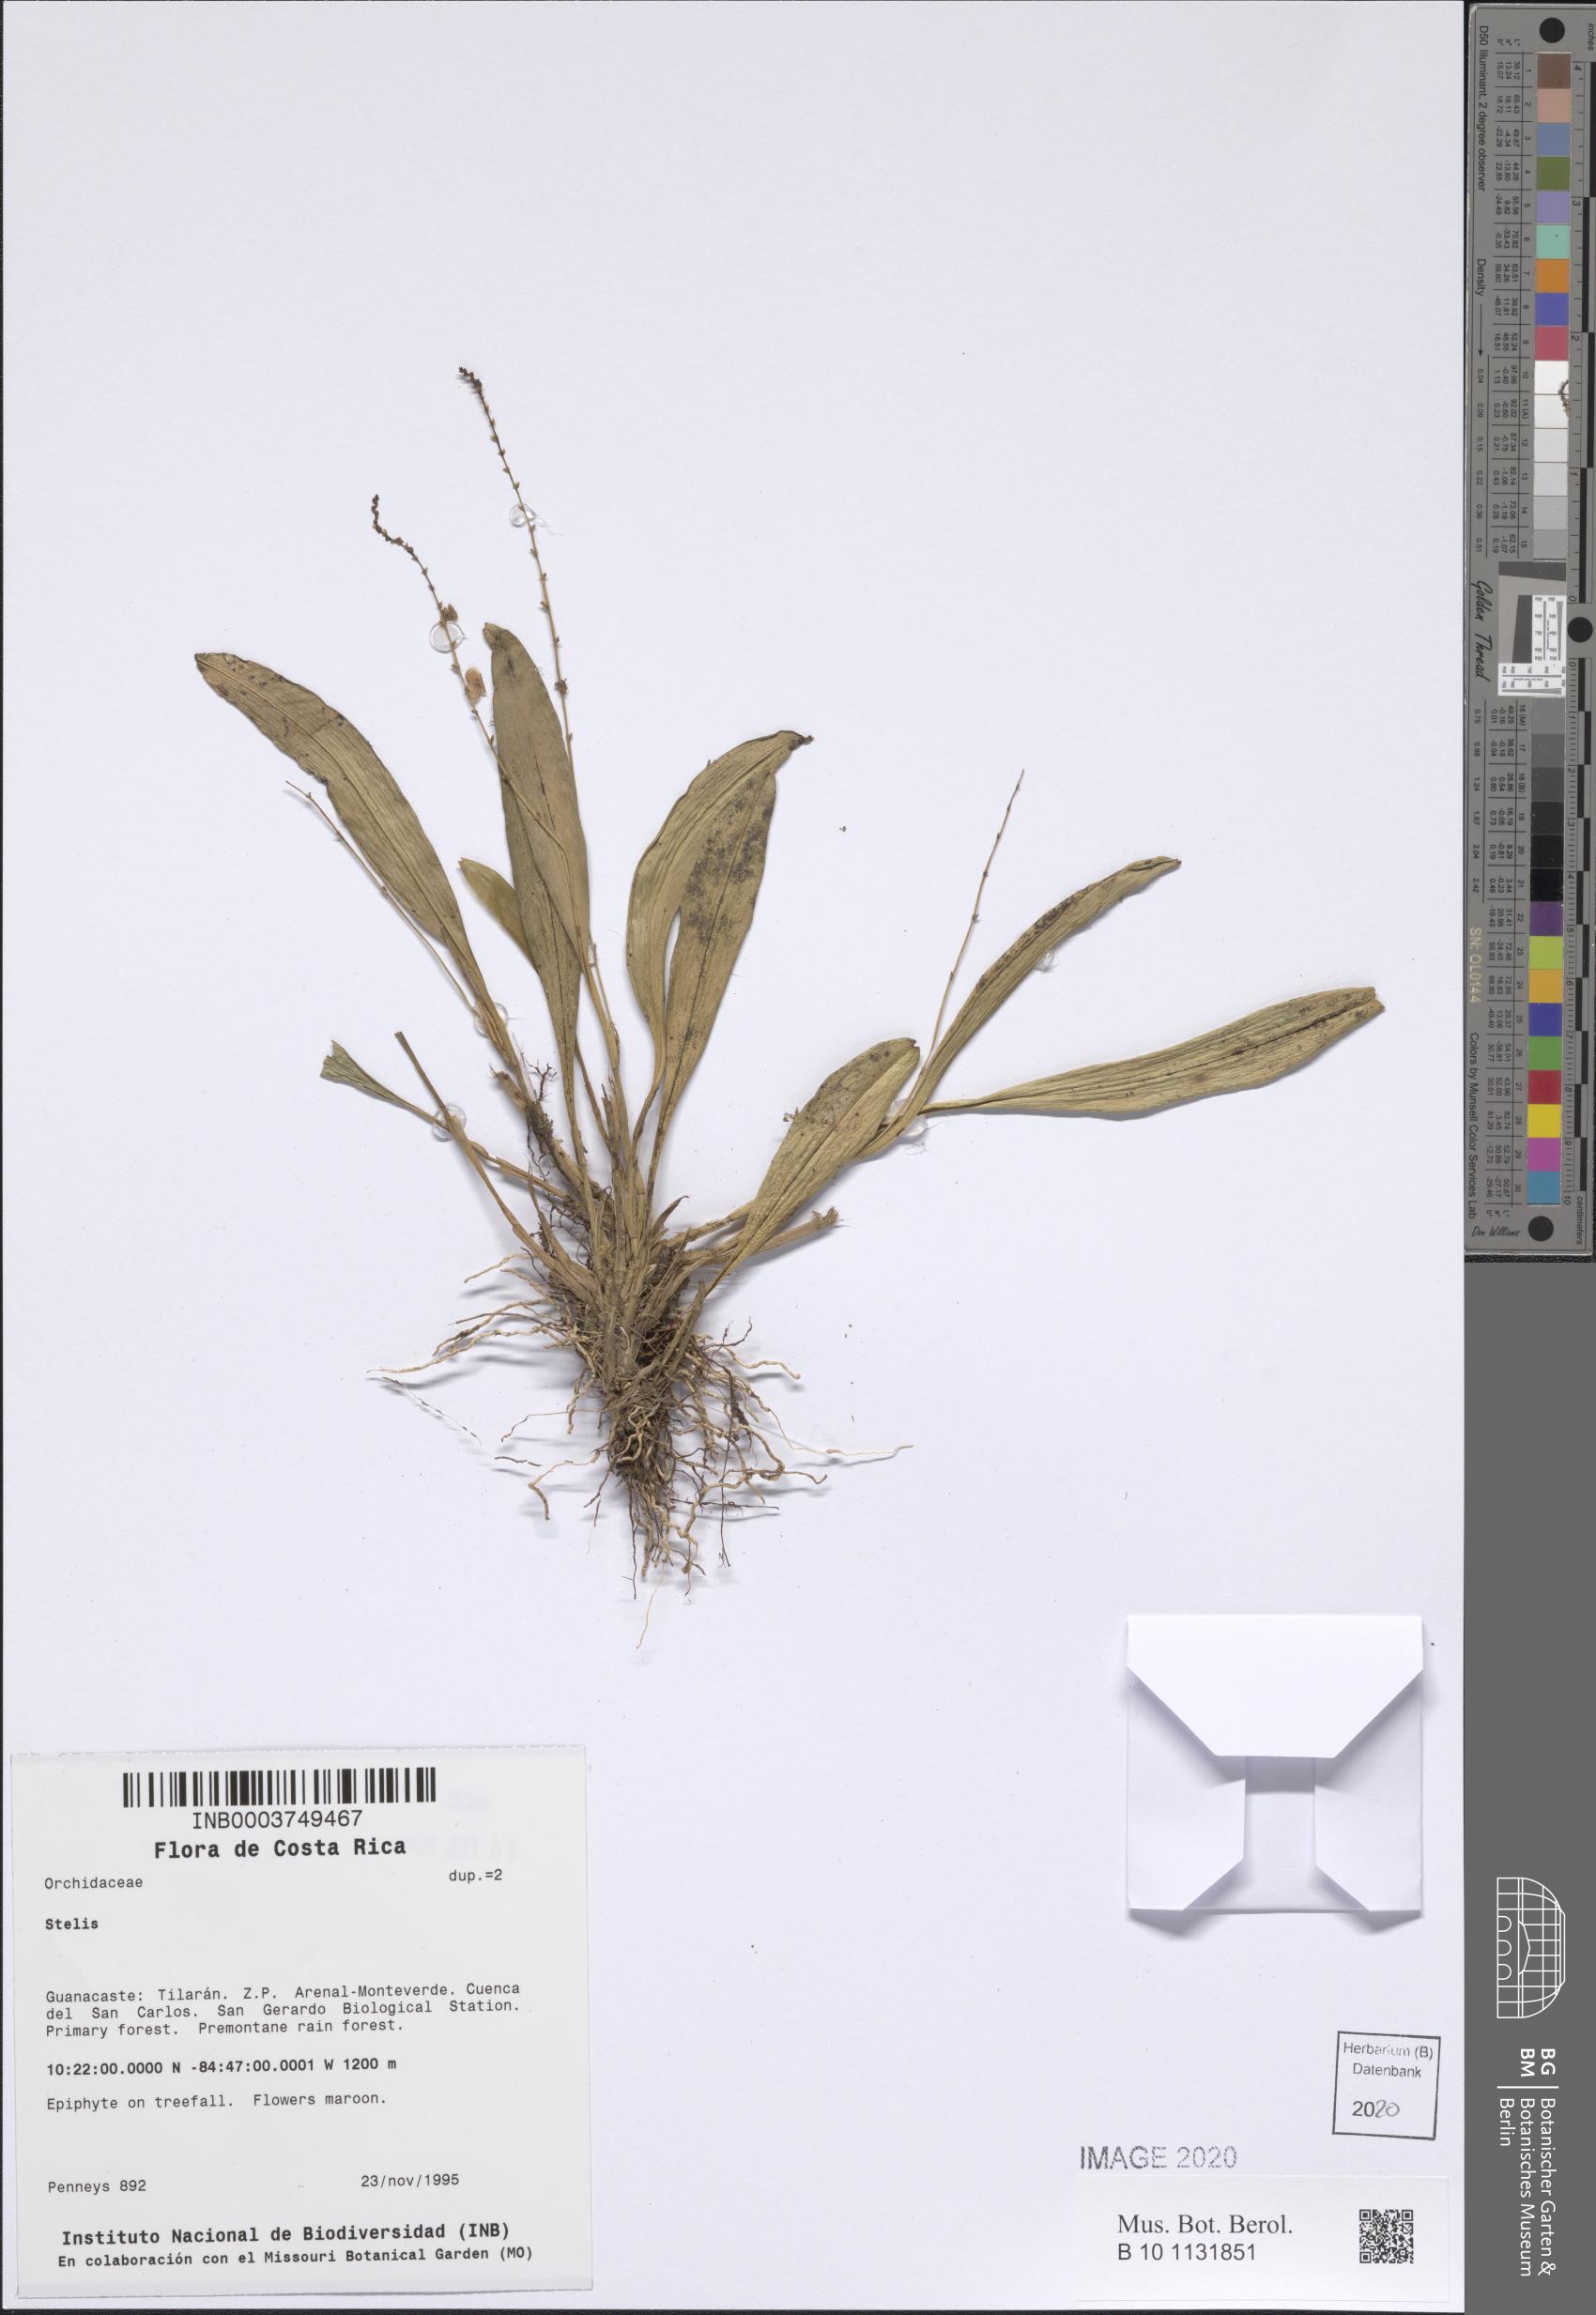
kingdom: Plantae
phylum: Tracheophyta
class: Liliopsida
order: Asparagales
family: Orchidaceae
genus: Stelis
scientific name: Stelis
